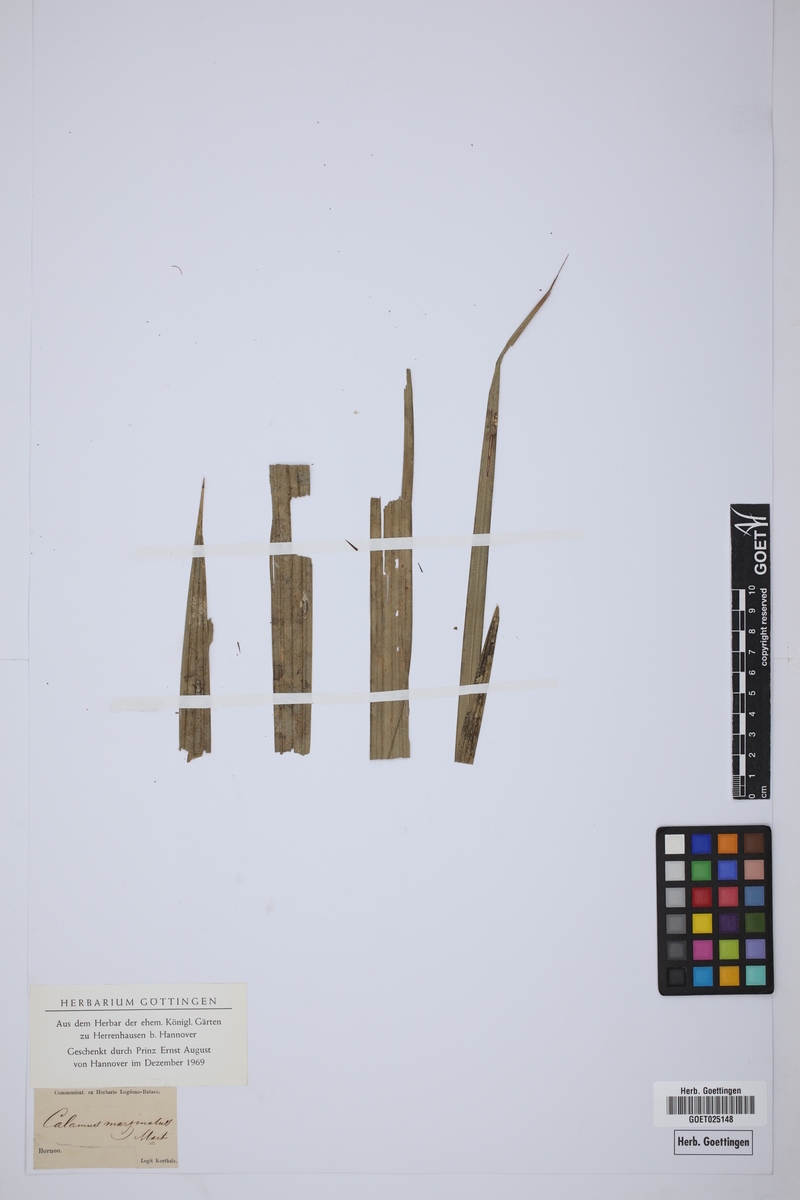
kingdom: Plantae
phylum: Tracheophyta
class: Liliopsida
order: Arecales
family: Arecaceae
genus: Calamus
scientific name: Calamus marginatus
